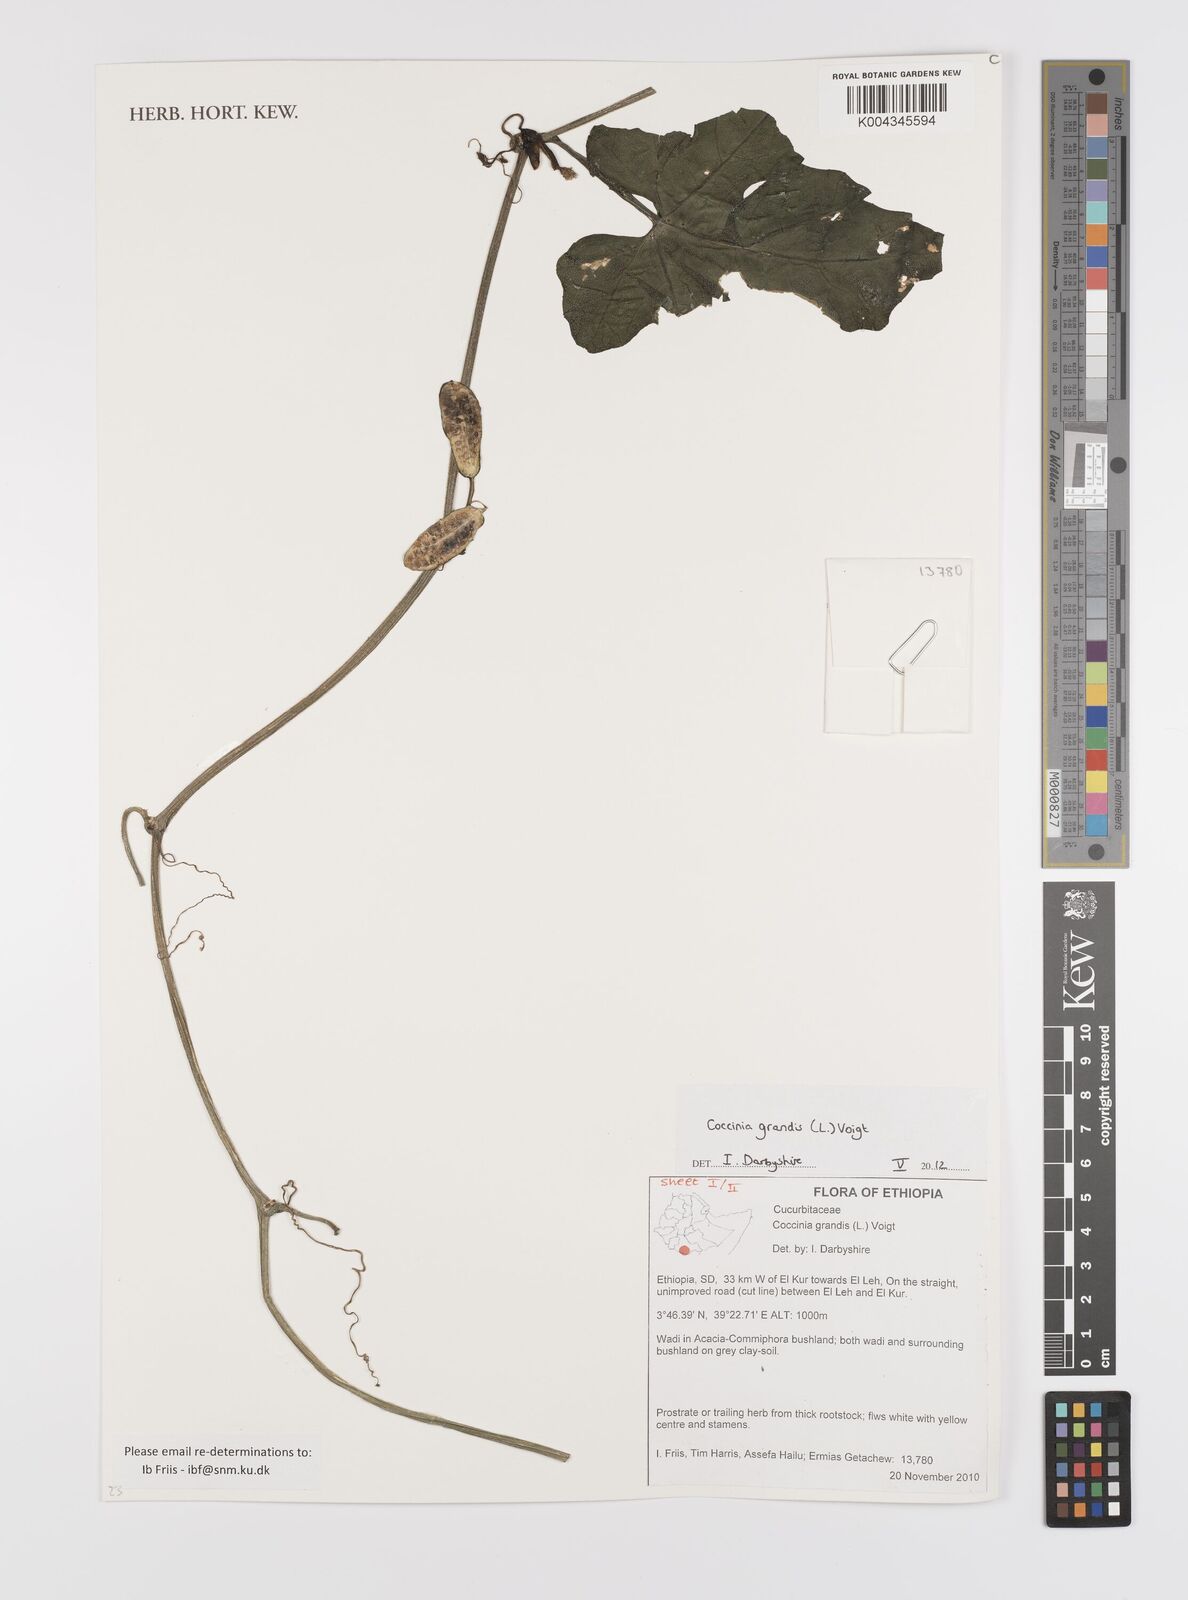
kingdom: Plantae
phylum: Tracheophyta
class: Magnoliopsida
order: Cucurbitales
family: Cucurbitaceae
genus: Coccinia
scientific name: Coccinia grandis
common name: Ivy gourd
